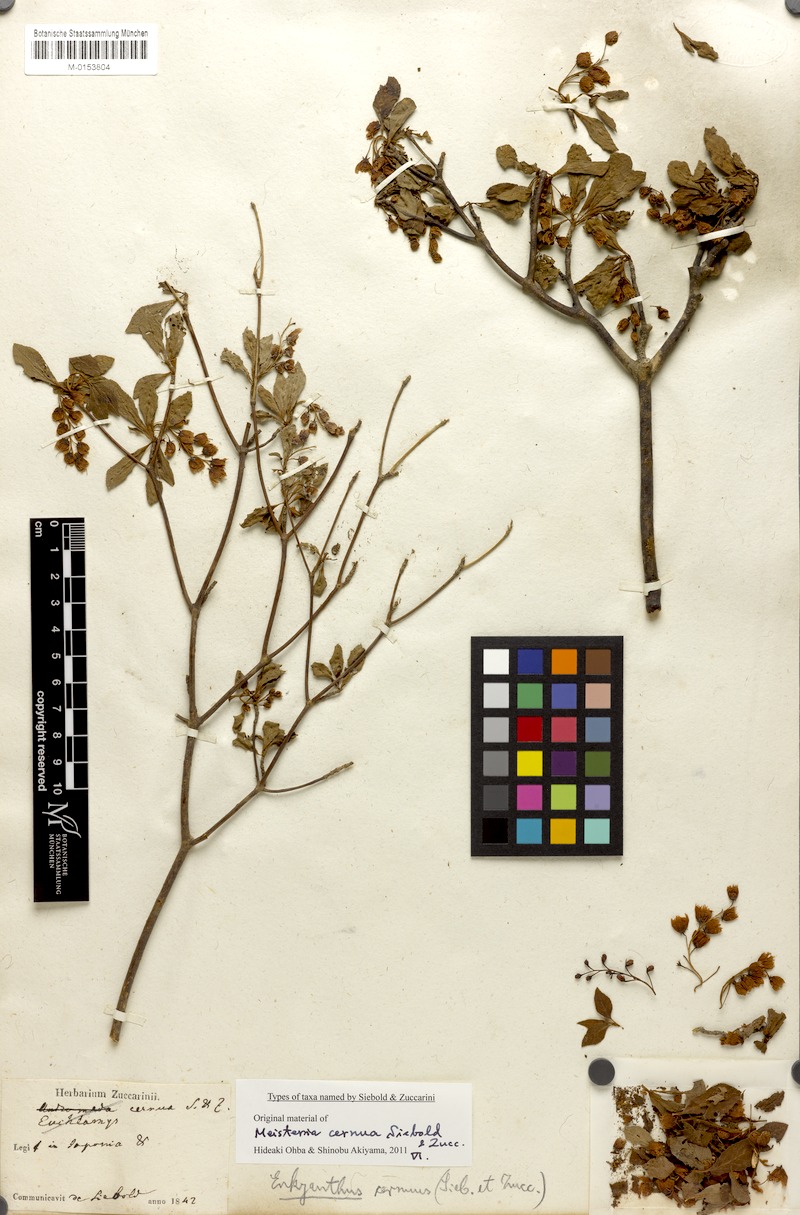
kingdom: Plantae
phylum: Tracheophyta
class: Magnoliopsida
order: Ericales
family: Ericaceae
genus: Enkianthus
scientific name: Enkianthus cernuus
